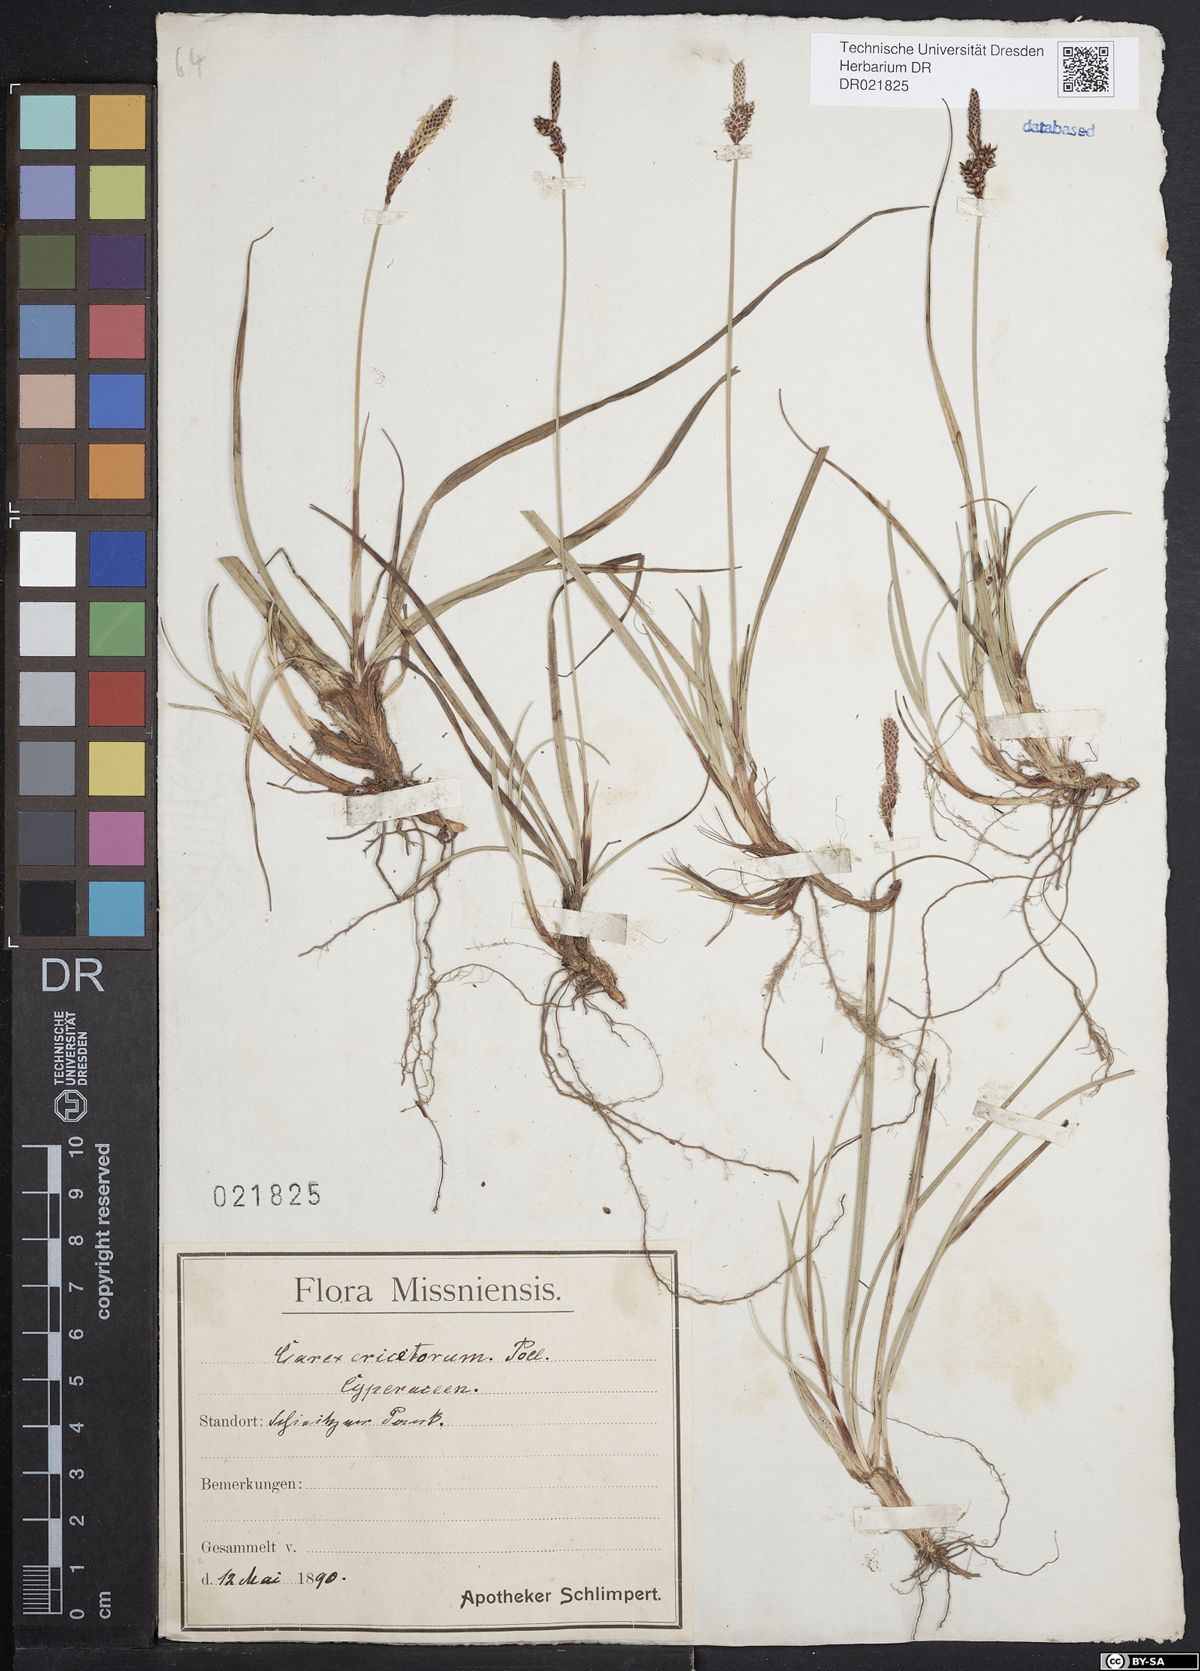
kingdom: Plantae
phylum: Tracheophyta
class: Liliopsida
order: Poales
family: Cyperaceae
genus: Carex
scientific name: Carex ericetorum
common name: Rare spring-sedge
